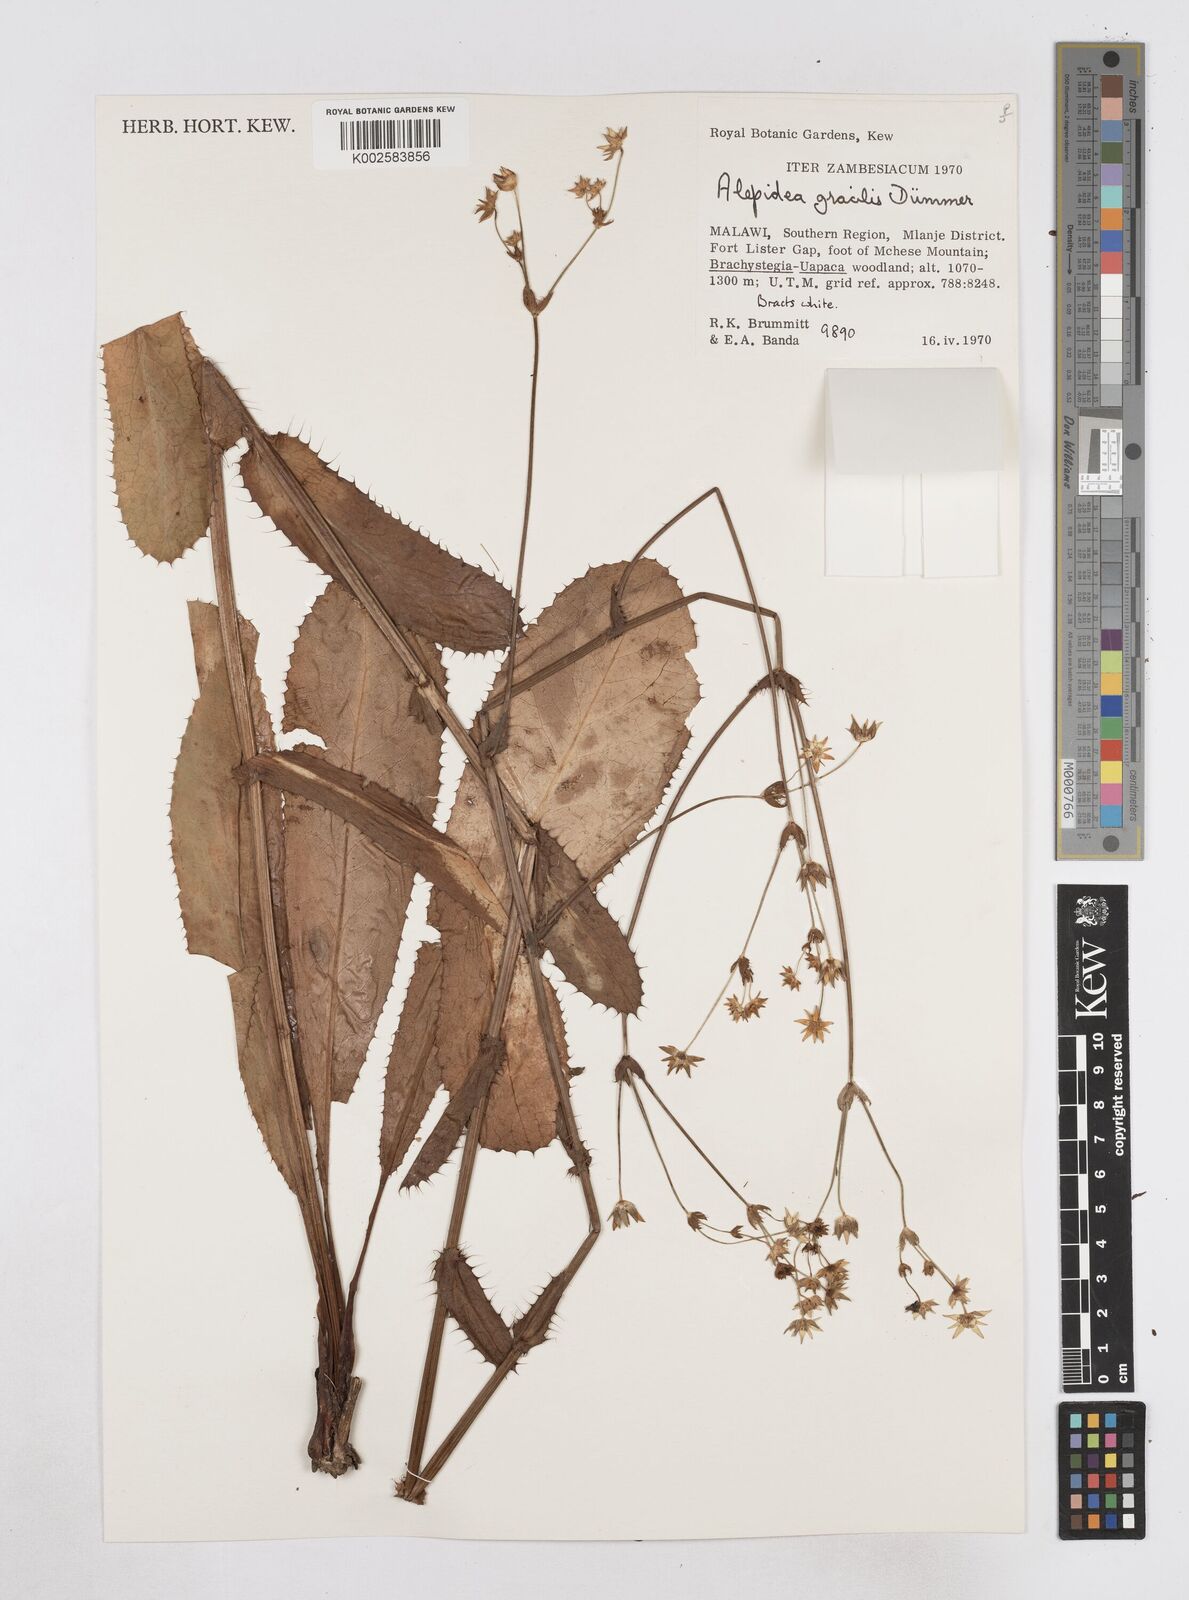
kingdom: Plantae
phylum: Tracheophyta
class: Magnoliopsida
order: Apiales
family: Apiaceae
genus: Alepidea
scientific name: Alepidea peduncularis
